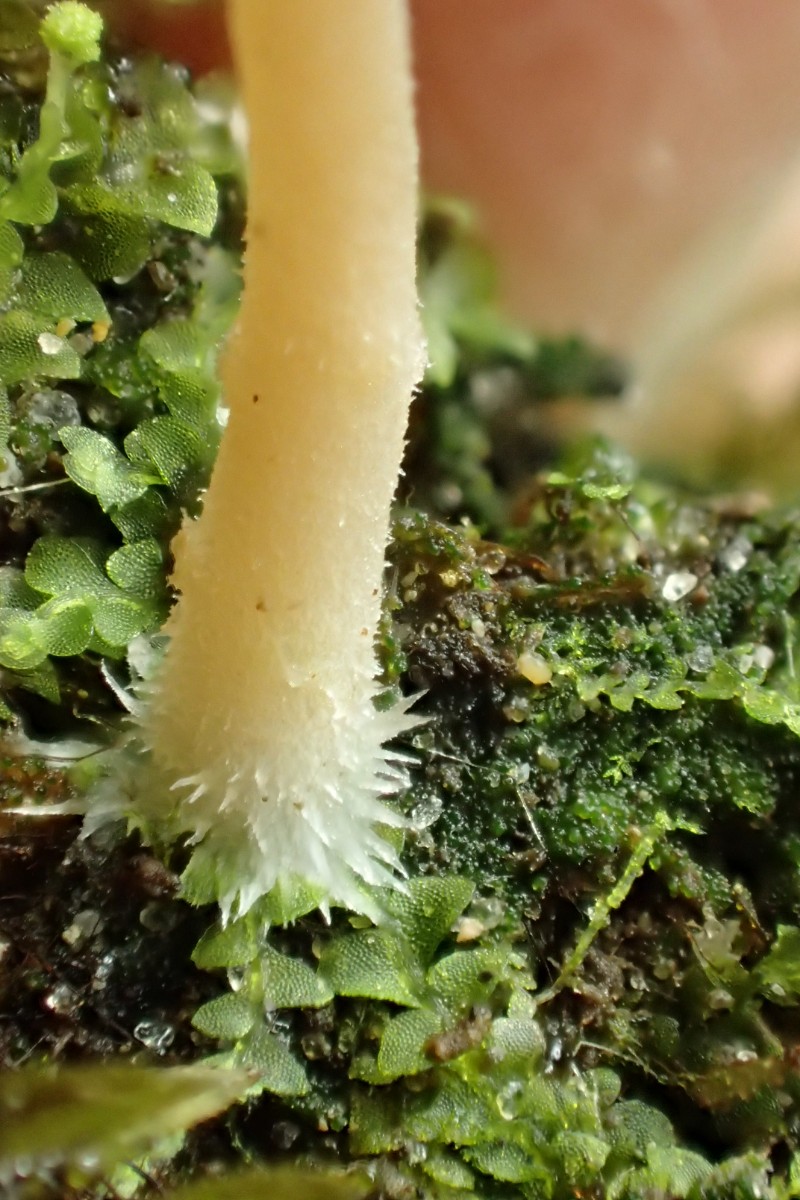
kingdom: Fungi
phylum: Basidiomycota
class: Agaricomycetes
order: Agaricales
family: Hygrophoraceae
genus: Lichenomphalia
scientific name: Lichenomphalia umbellifera
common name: tørve-lavhat
